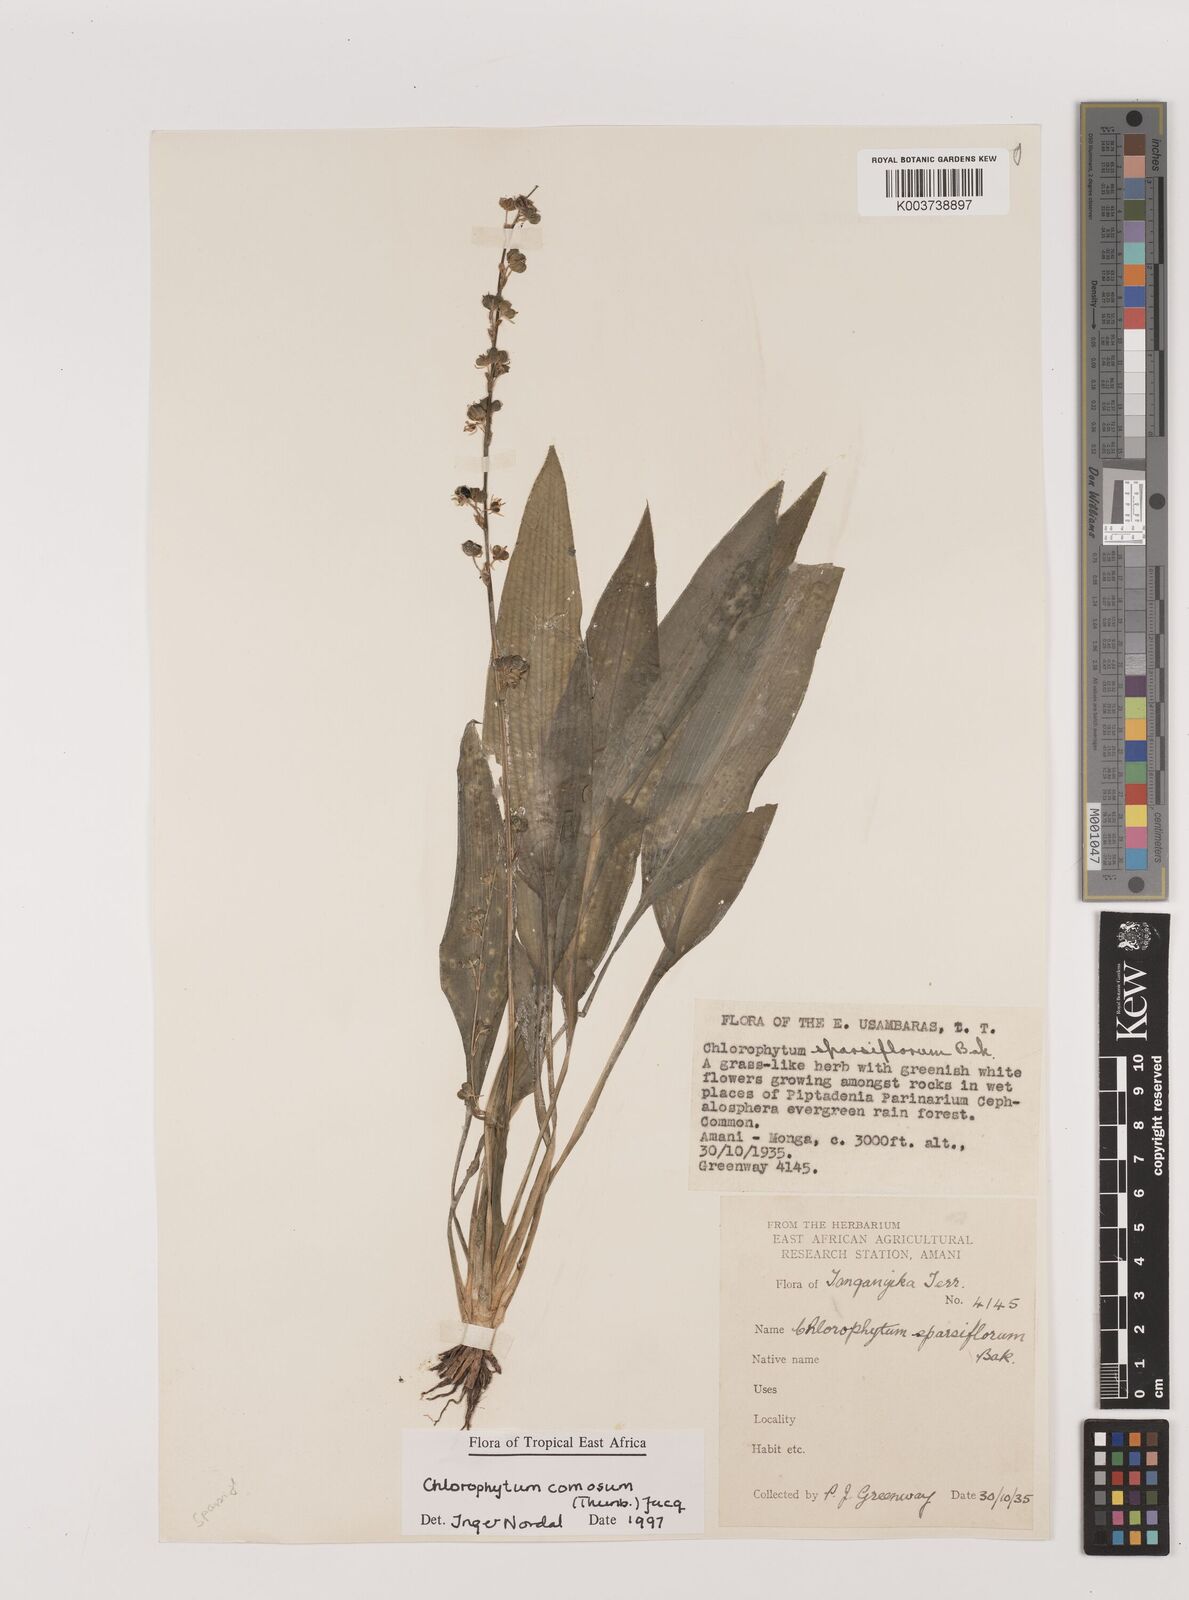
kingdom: Plantae
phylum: Tracheophyta
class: Liliopsida
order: Asparagales
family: Asparagaceae
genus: Chlorophytum
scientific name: Chlorophytum comosum
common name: Spider plant
